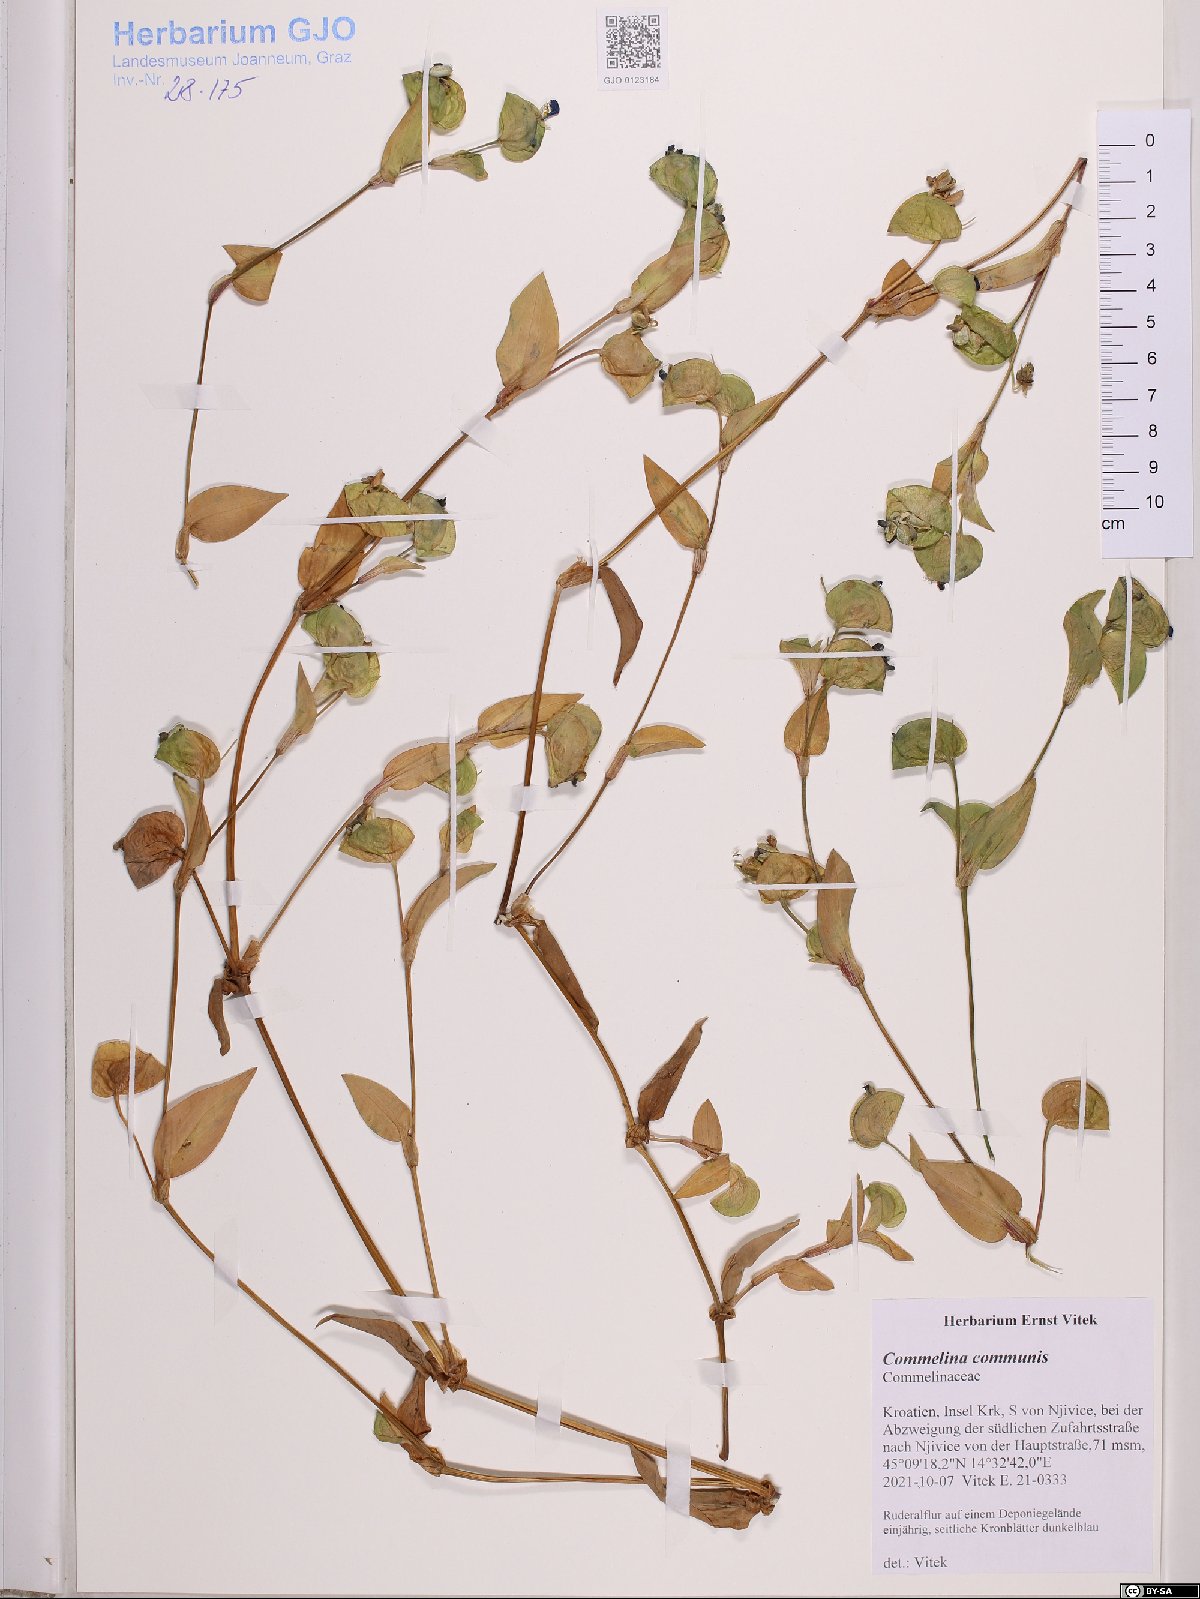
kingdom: Plantae
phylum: Tracheophyta
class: Liliopsida
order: Commelinales
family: Commelinaceae
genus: Commelina
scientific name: Commelina communis
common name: Asiatic dayflower
